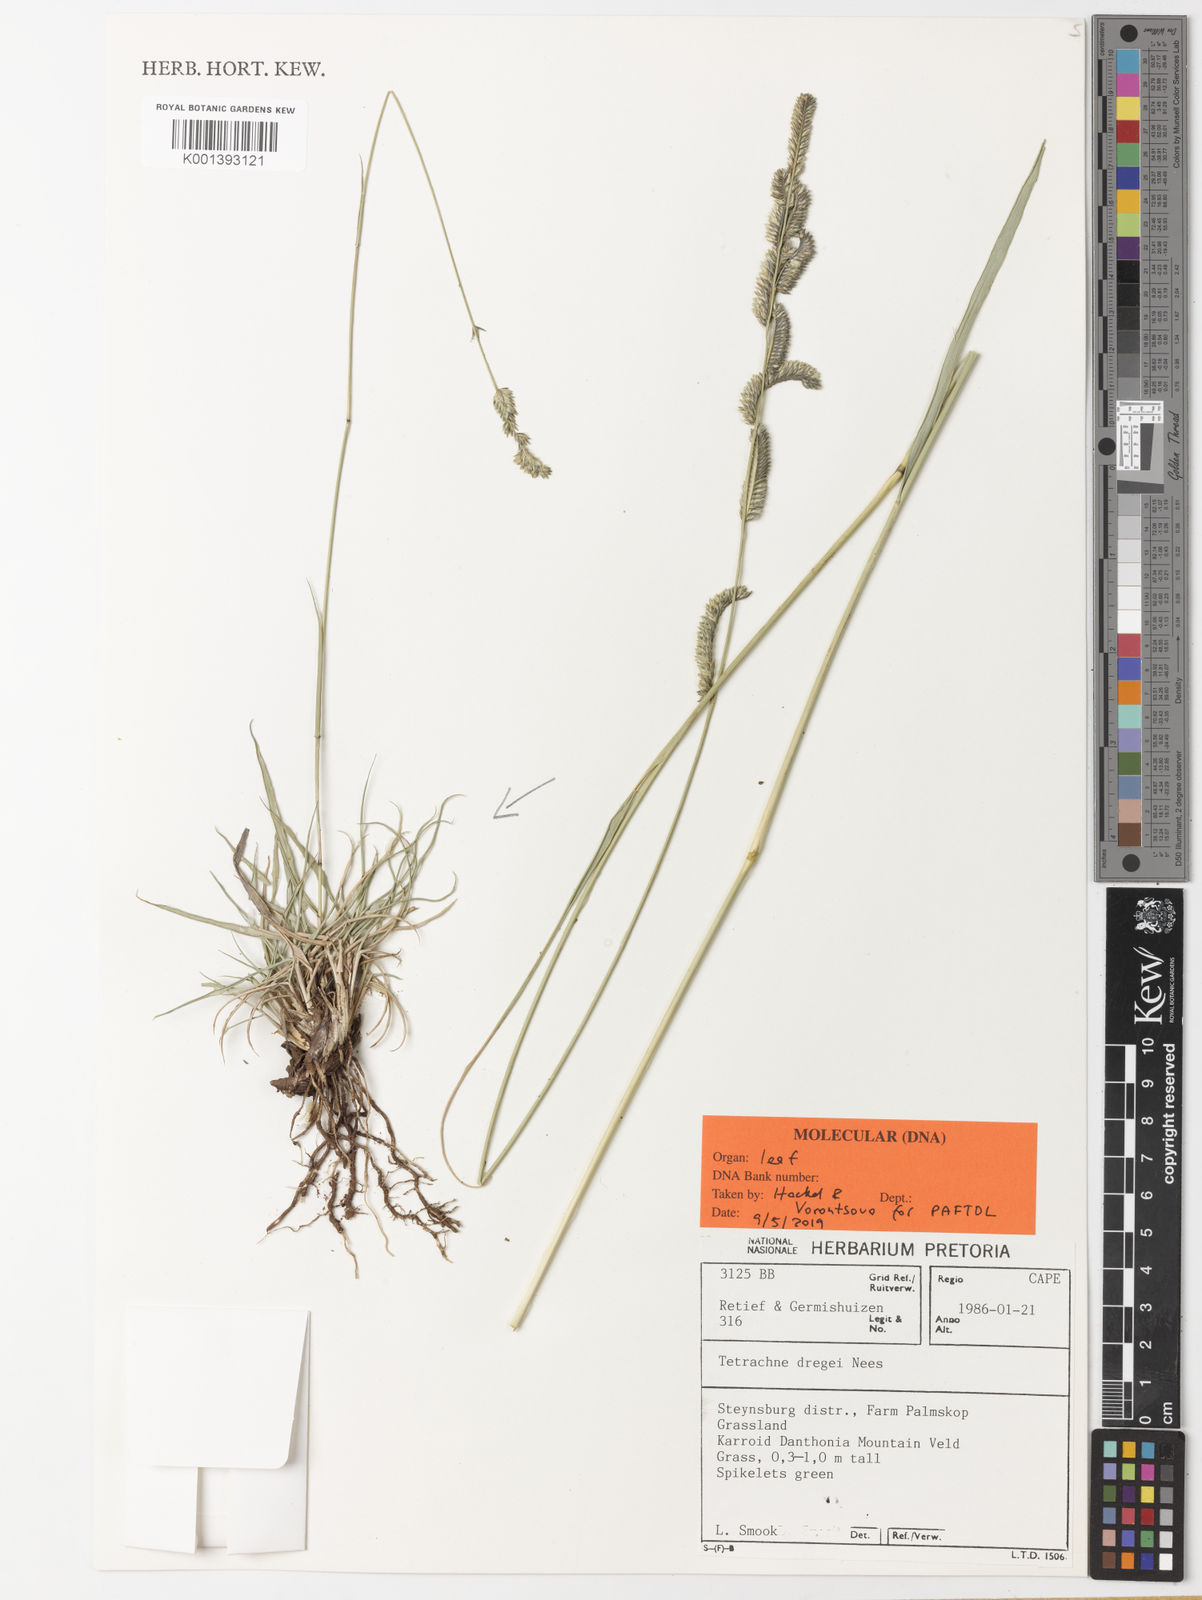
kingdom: Plantae
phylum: Tracheophyta
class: Liliopsida
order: Poales
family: Poaceae
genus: Tetrachne
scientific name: Tetrachne dregei
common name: Robies cocksfoot
